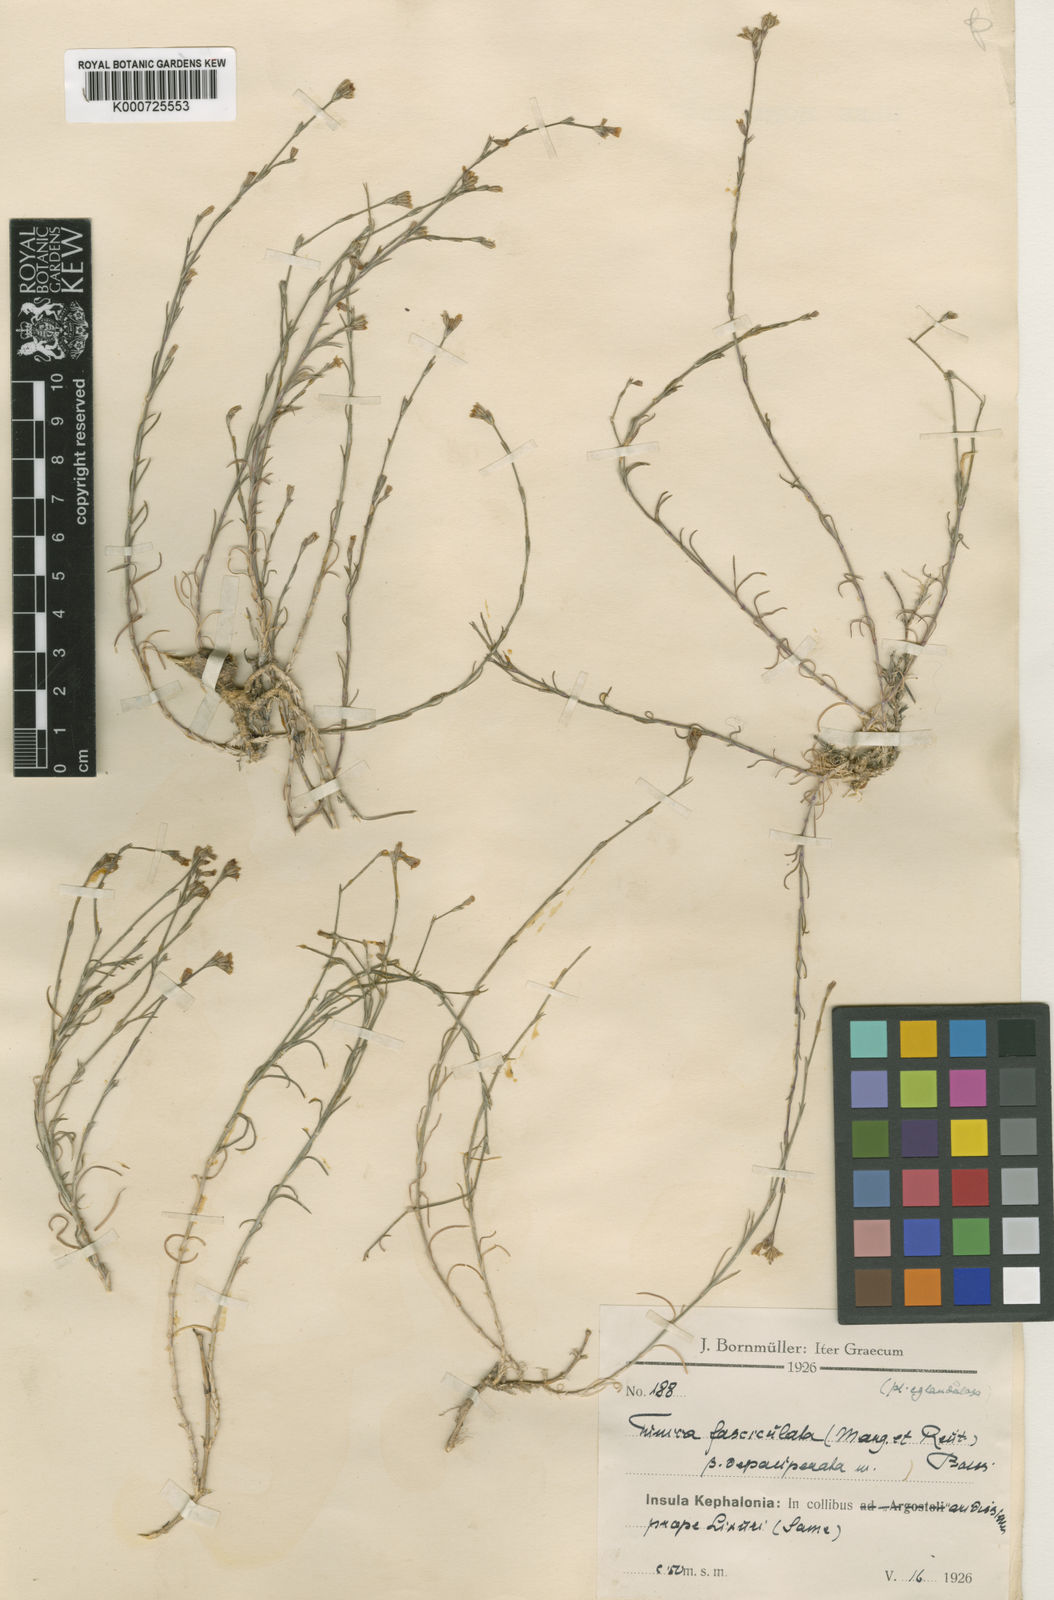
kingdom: Plantae
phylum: Tracheophyta
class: Magnoliopsida
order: Caryophyllales
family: Caryophyllaceae
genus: Petrorhagia
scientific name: Petrorhagia fasciculata
